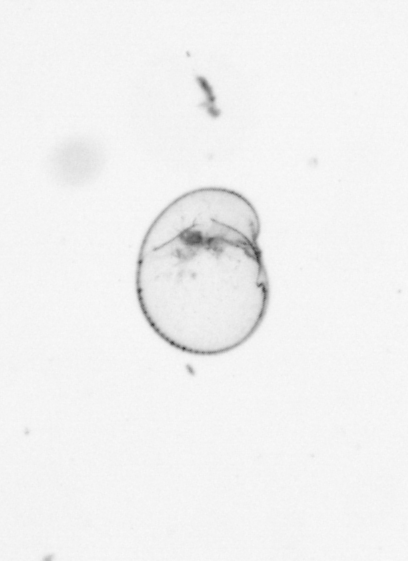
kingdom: Chromista
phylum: Myzozoa
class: Dinophyceae
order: Noctilucales
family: Noctilucaceae
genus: Noctiluca
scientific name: Noctiluca scintillans
